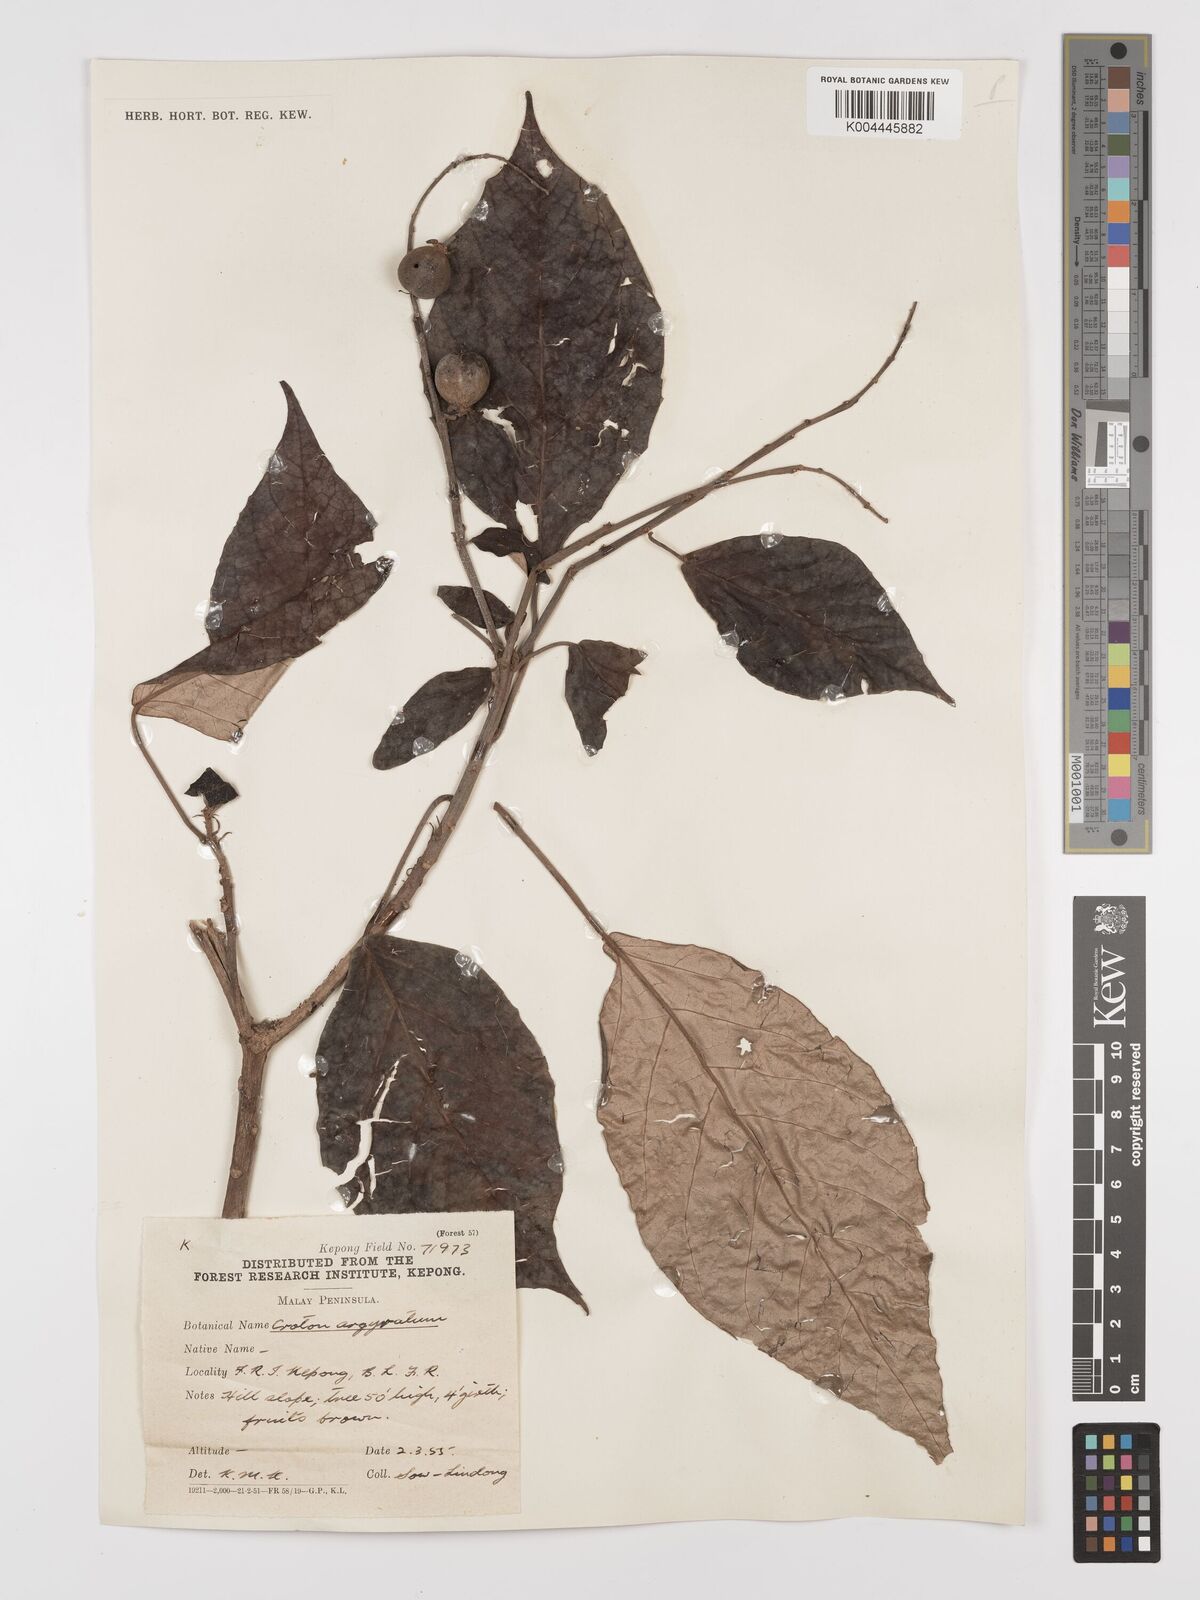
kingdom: Plantae
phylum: Tracheophyta
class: Magnoliopsida
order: Malpighiales
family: Euphorbiaceae
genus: Croton
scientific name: Croton argyratus
